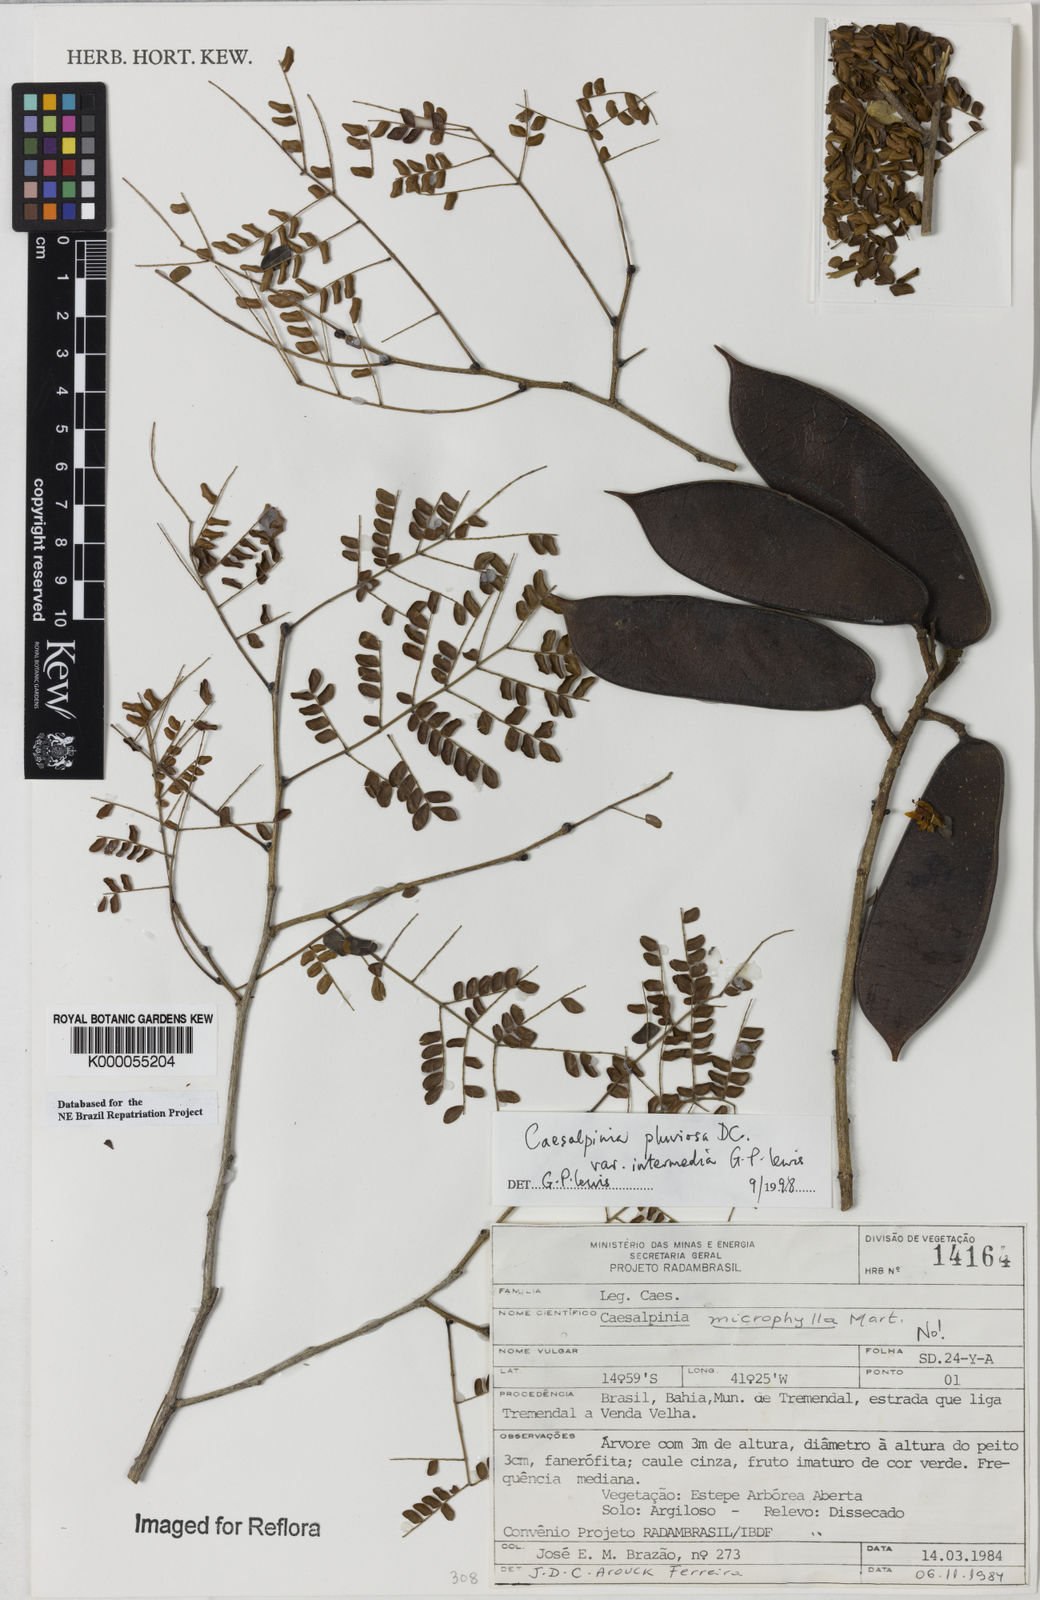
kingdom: Plantae
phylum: Tracheophyta
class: Magnoliopsida
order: Fabales
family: Fabaceae
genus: Cenostigma
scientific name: Cenostigma pluviosum
